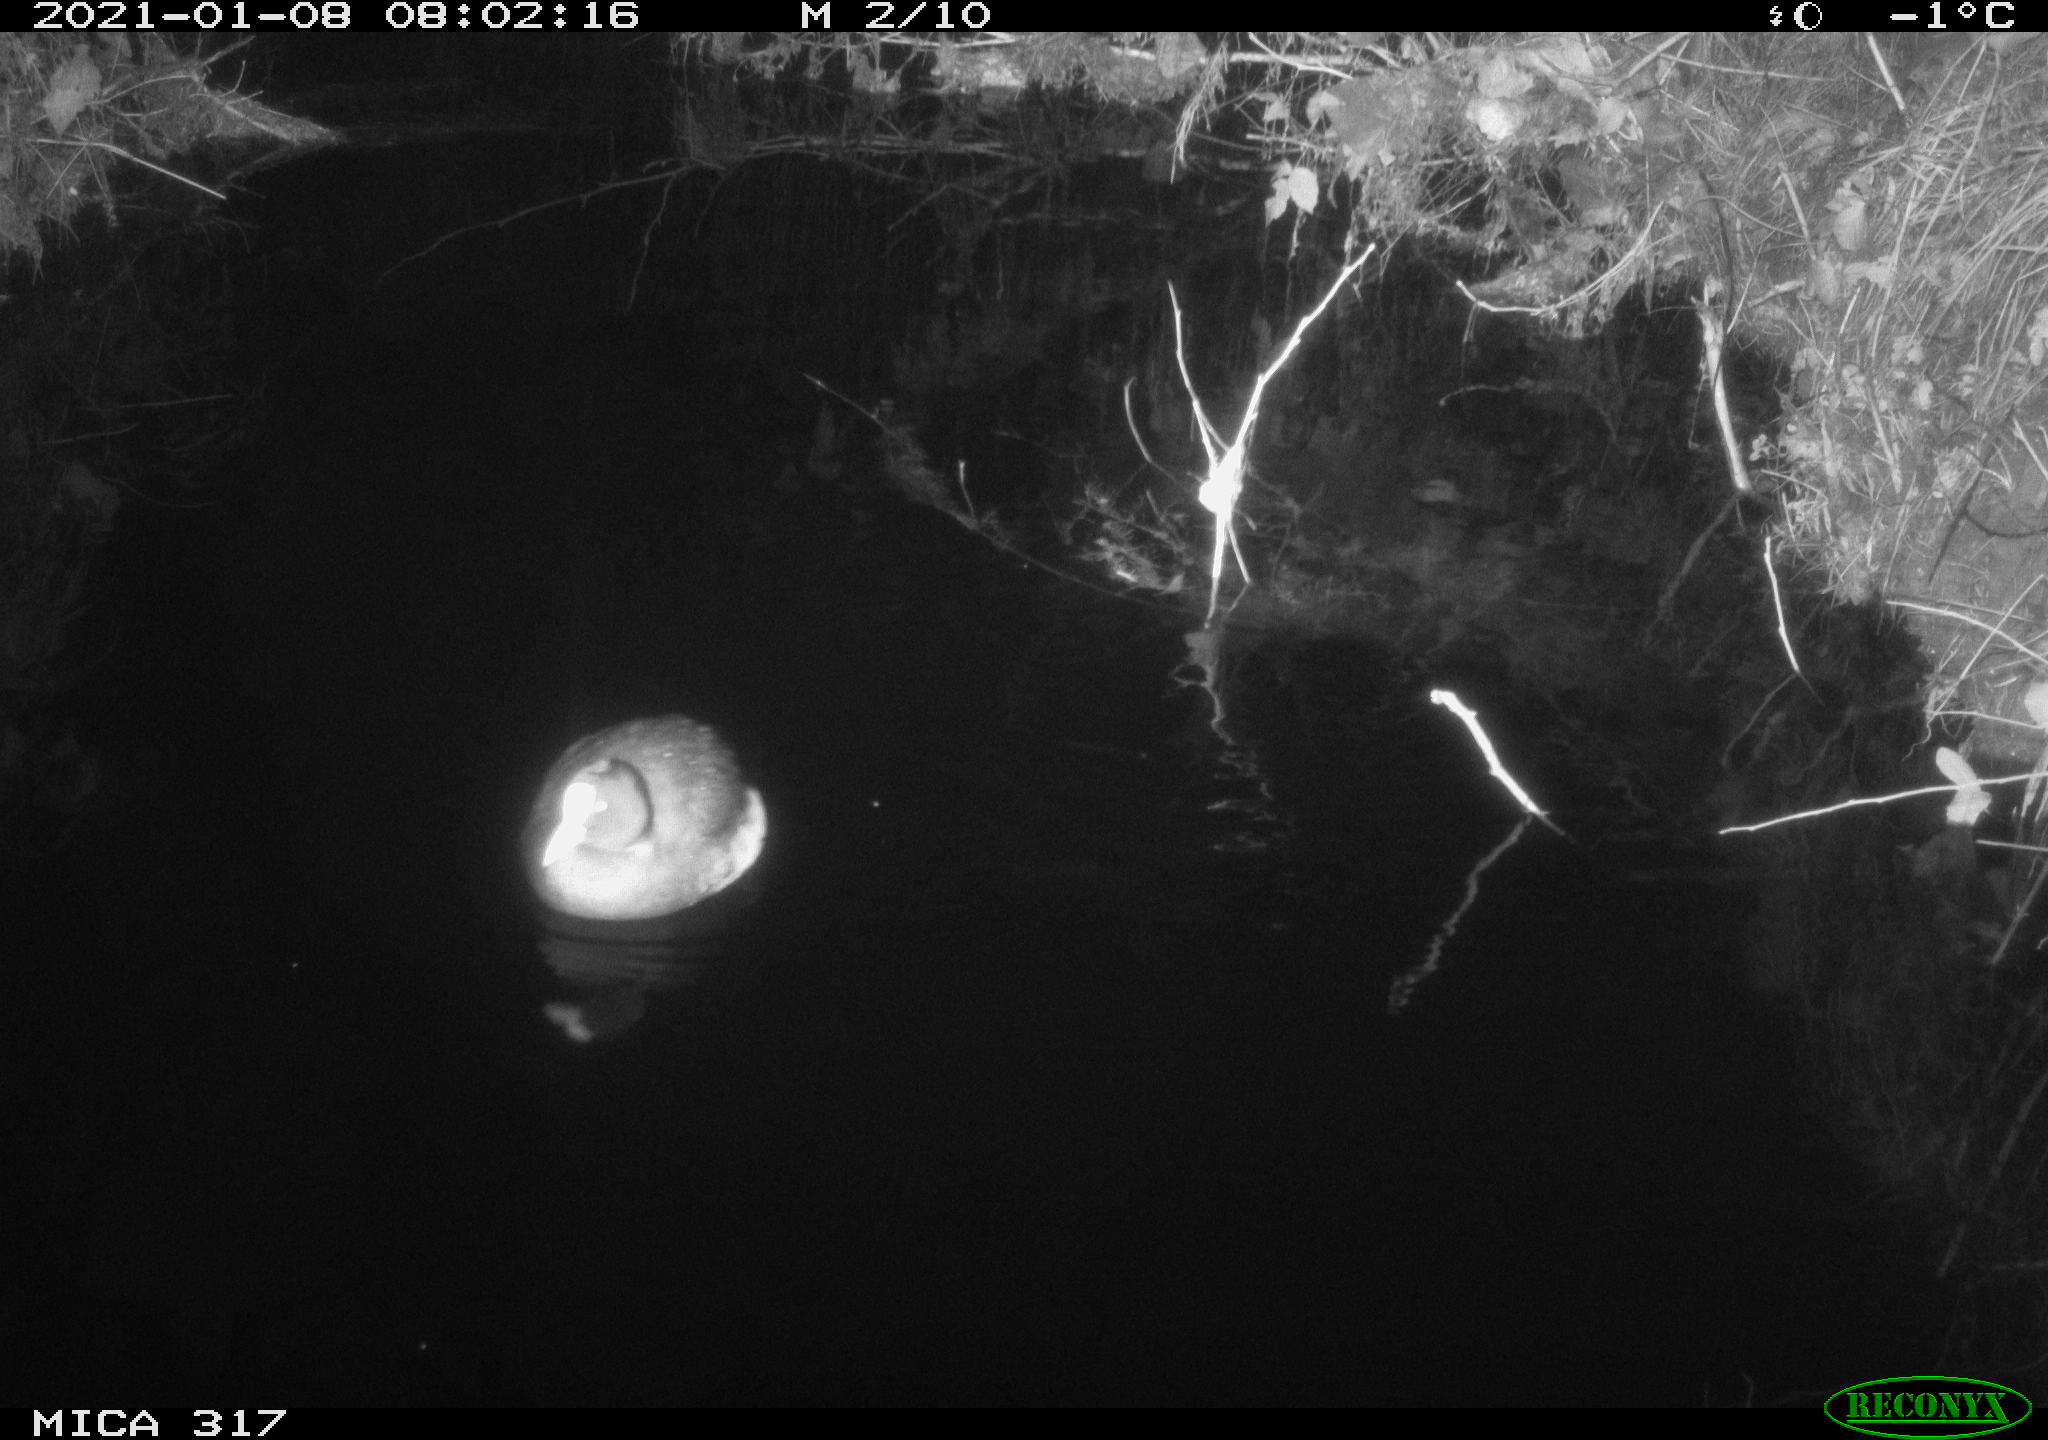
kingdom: Animalia
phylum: Chordata
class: Aves
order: Gruiformes
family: Rallidae
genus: Fulica
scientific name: Fulica atra
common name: Eurasian coot
